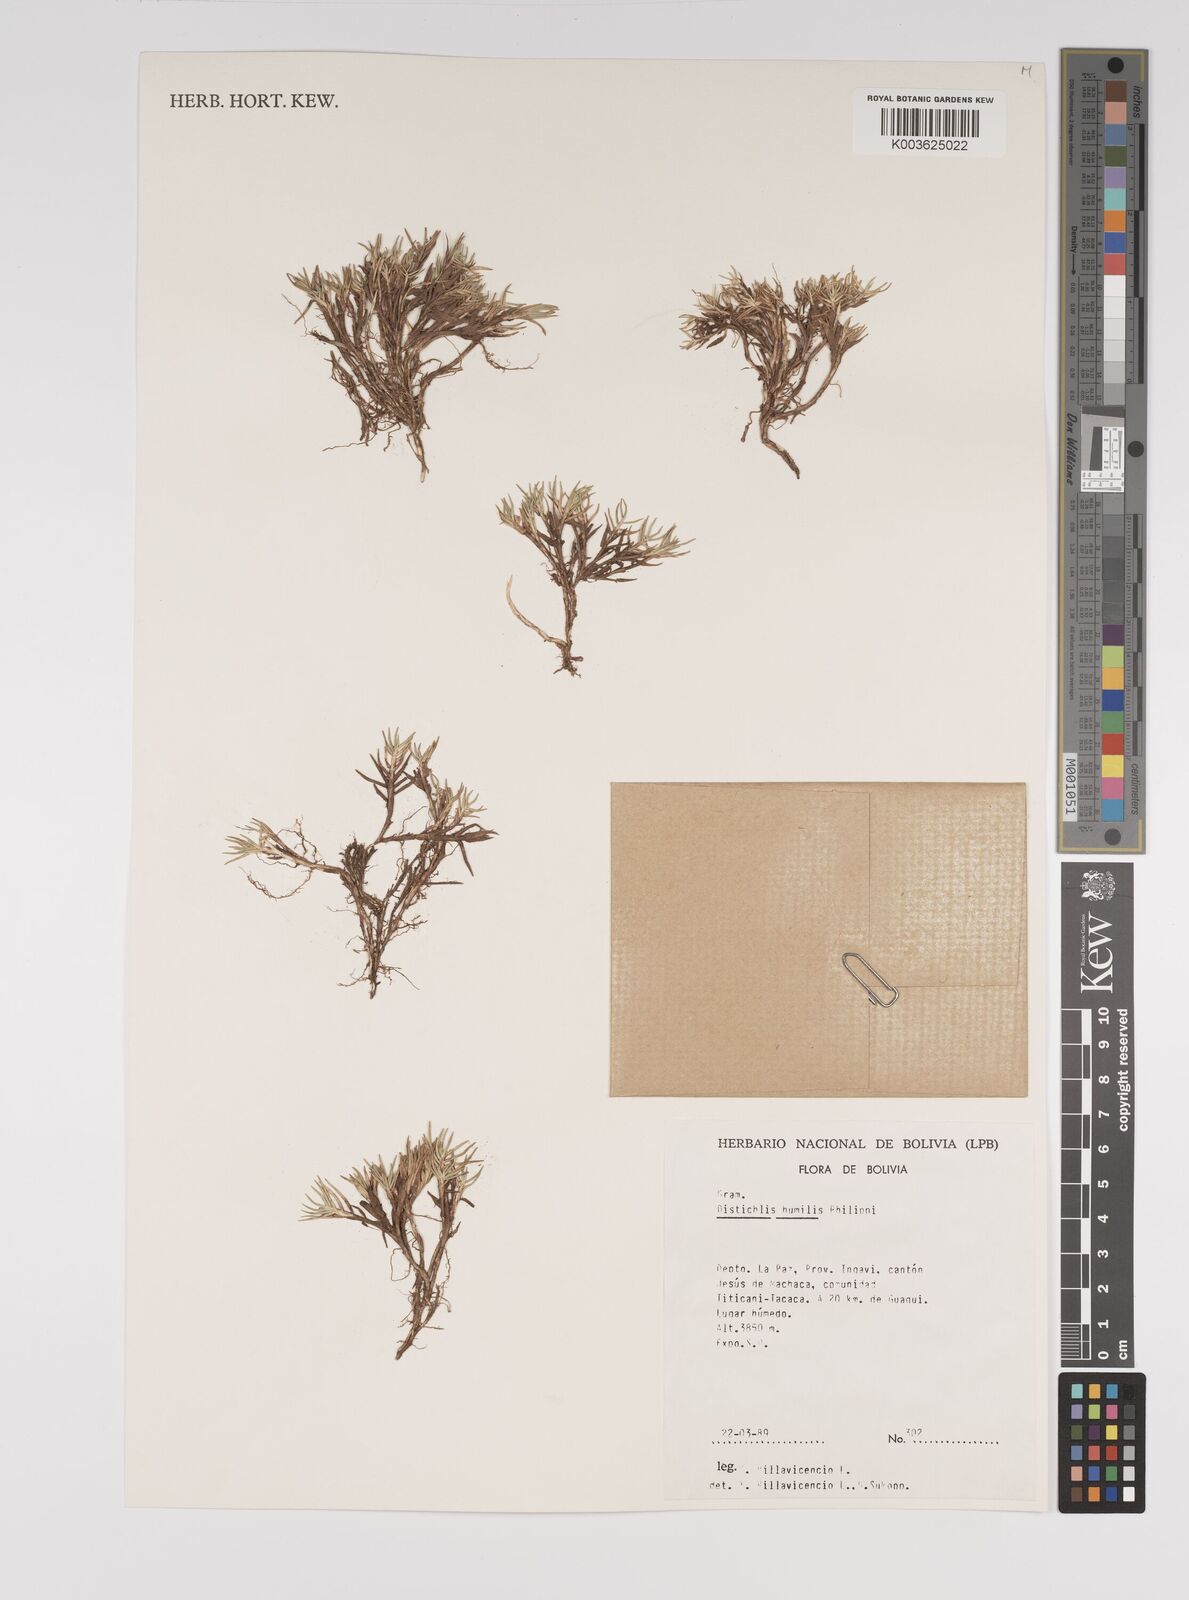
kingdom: Plantae
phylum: Tracheophyta
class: Liliopsida
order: Poales
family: Poaceae
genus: Distichlis
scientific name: Distichlis humilis
